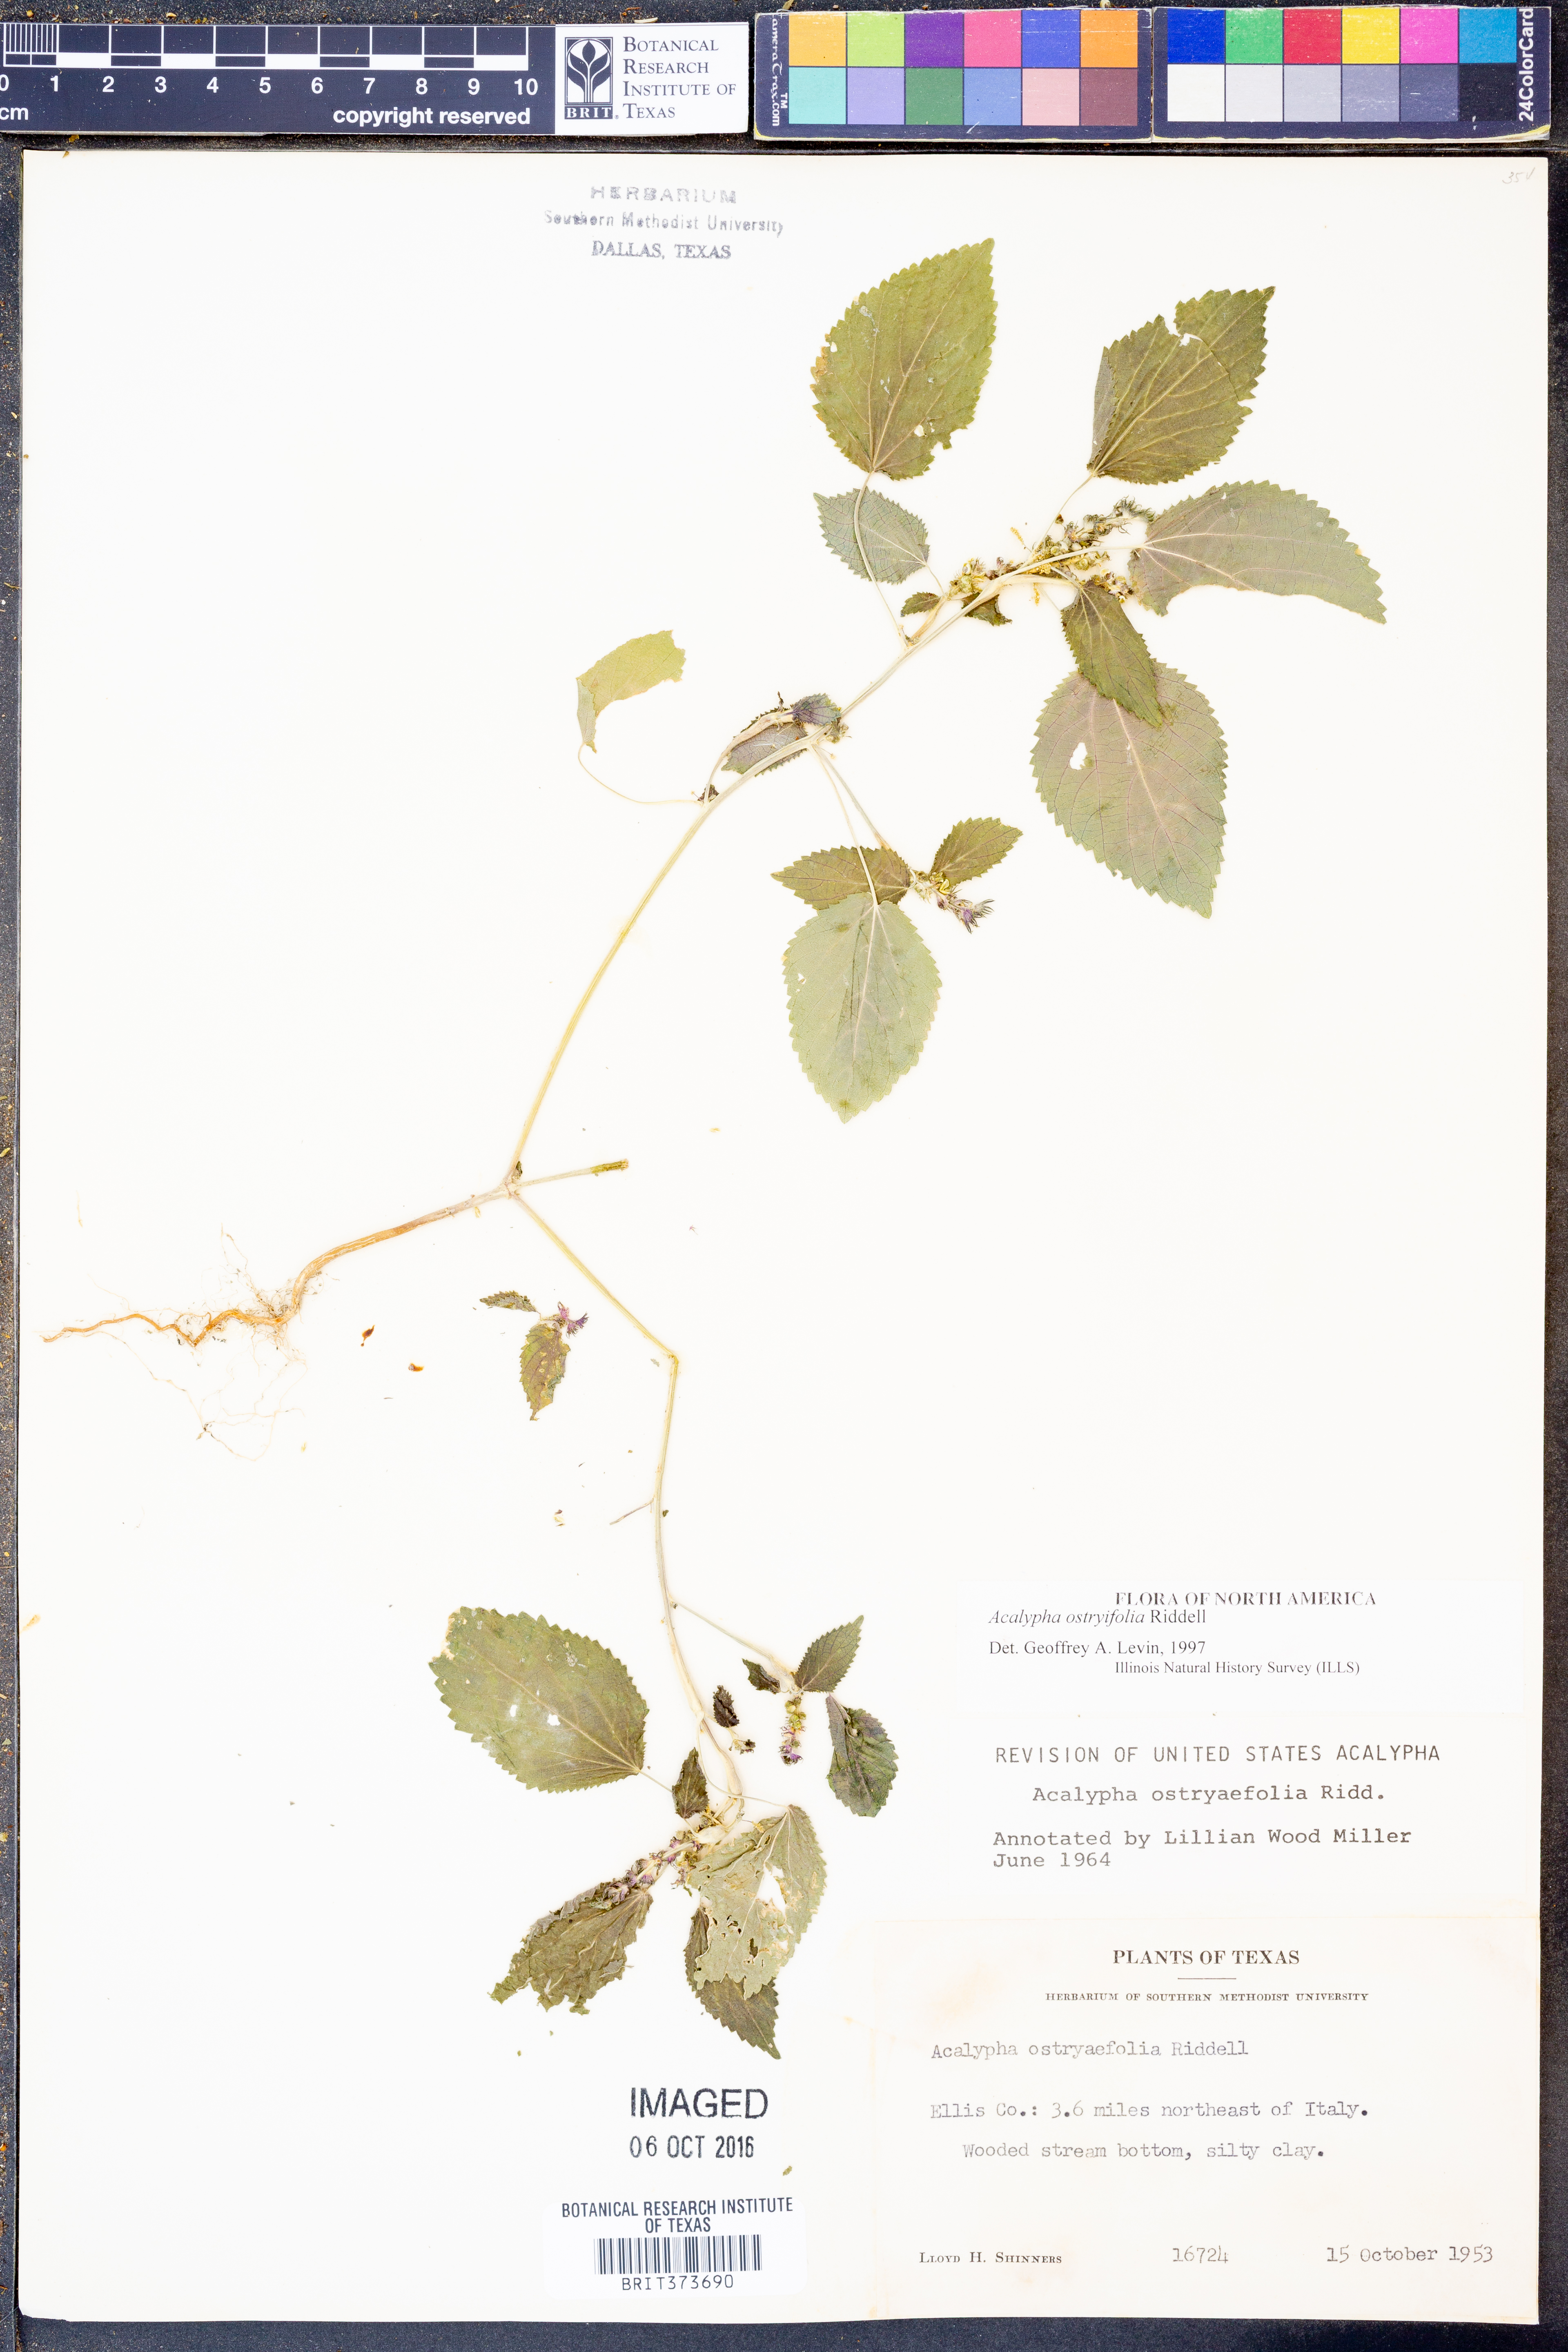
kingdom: Plantae
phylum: Tracheophyta
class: Magnoliopsida
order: Malpighiales
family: Euphorbiaceae
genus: Acalypha
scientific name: Acalypha persimilis
